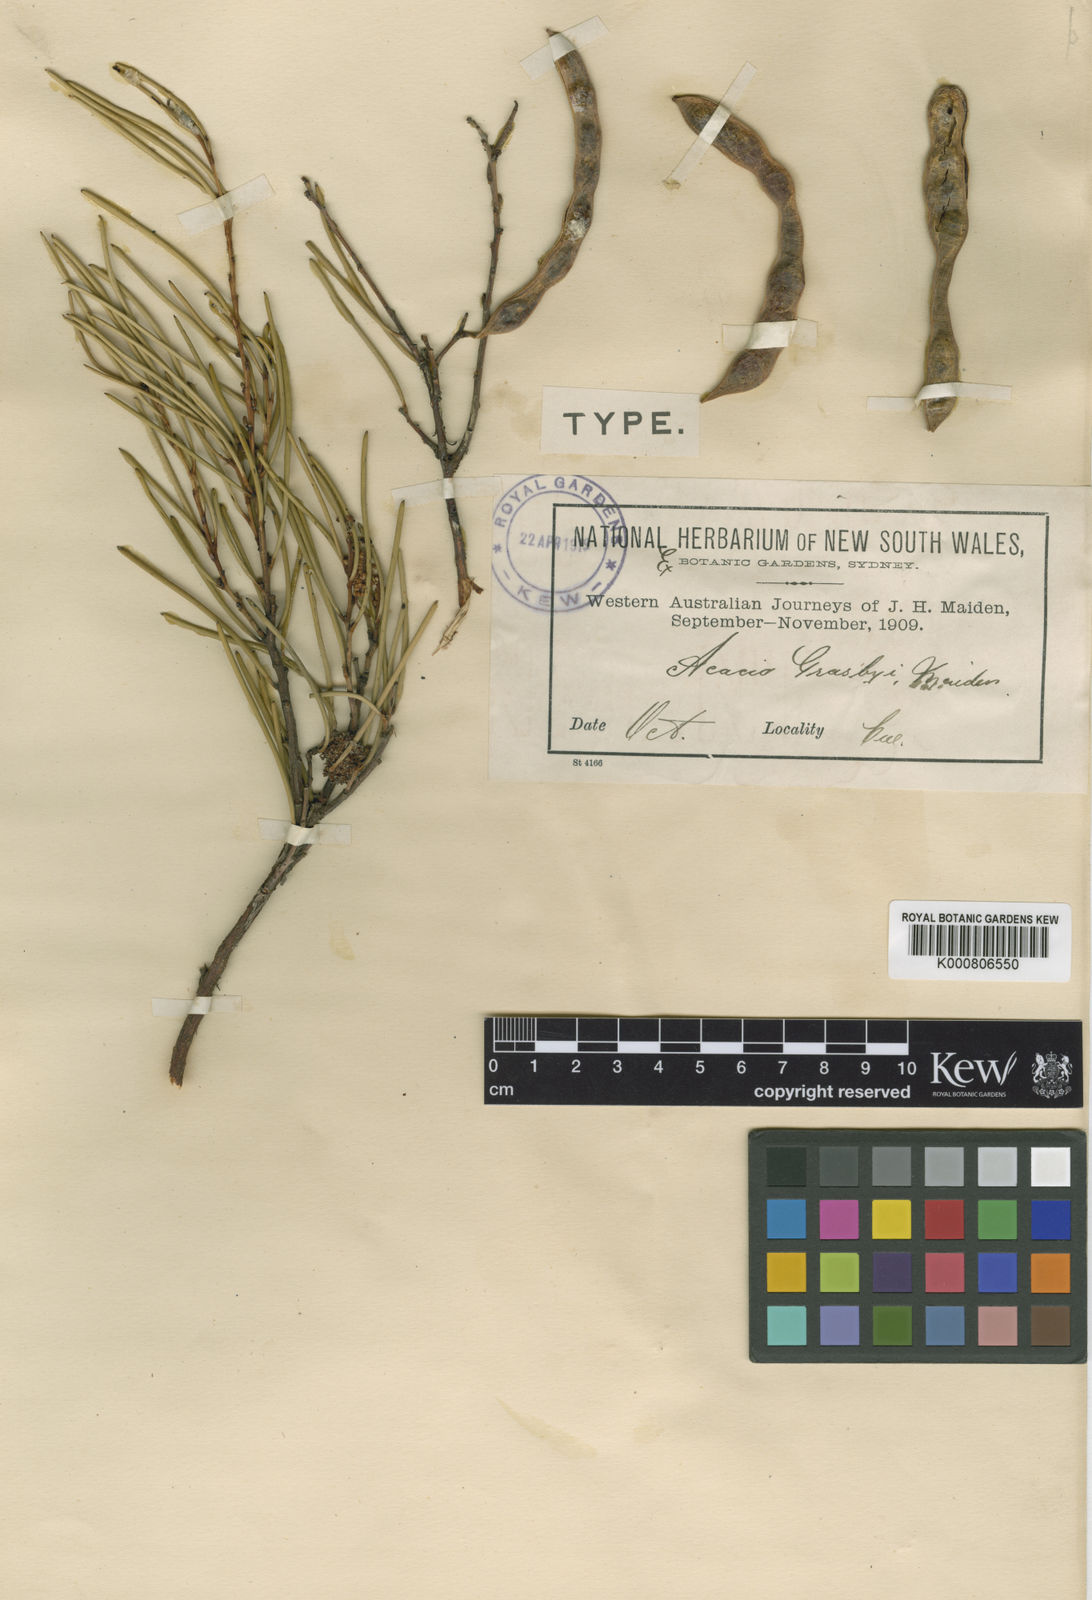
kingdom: Plantae
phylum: Tracheophyta
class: Magnoliopsida
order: Fabales
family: Fabaceae
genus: Acacia
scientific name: Acacia grasbyi
